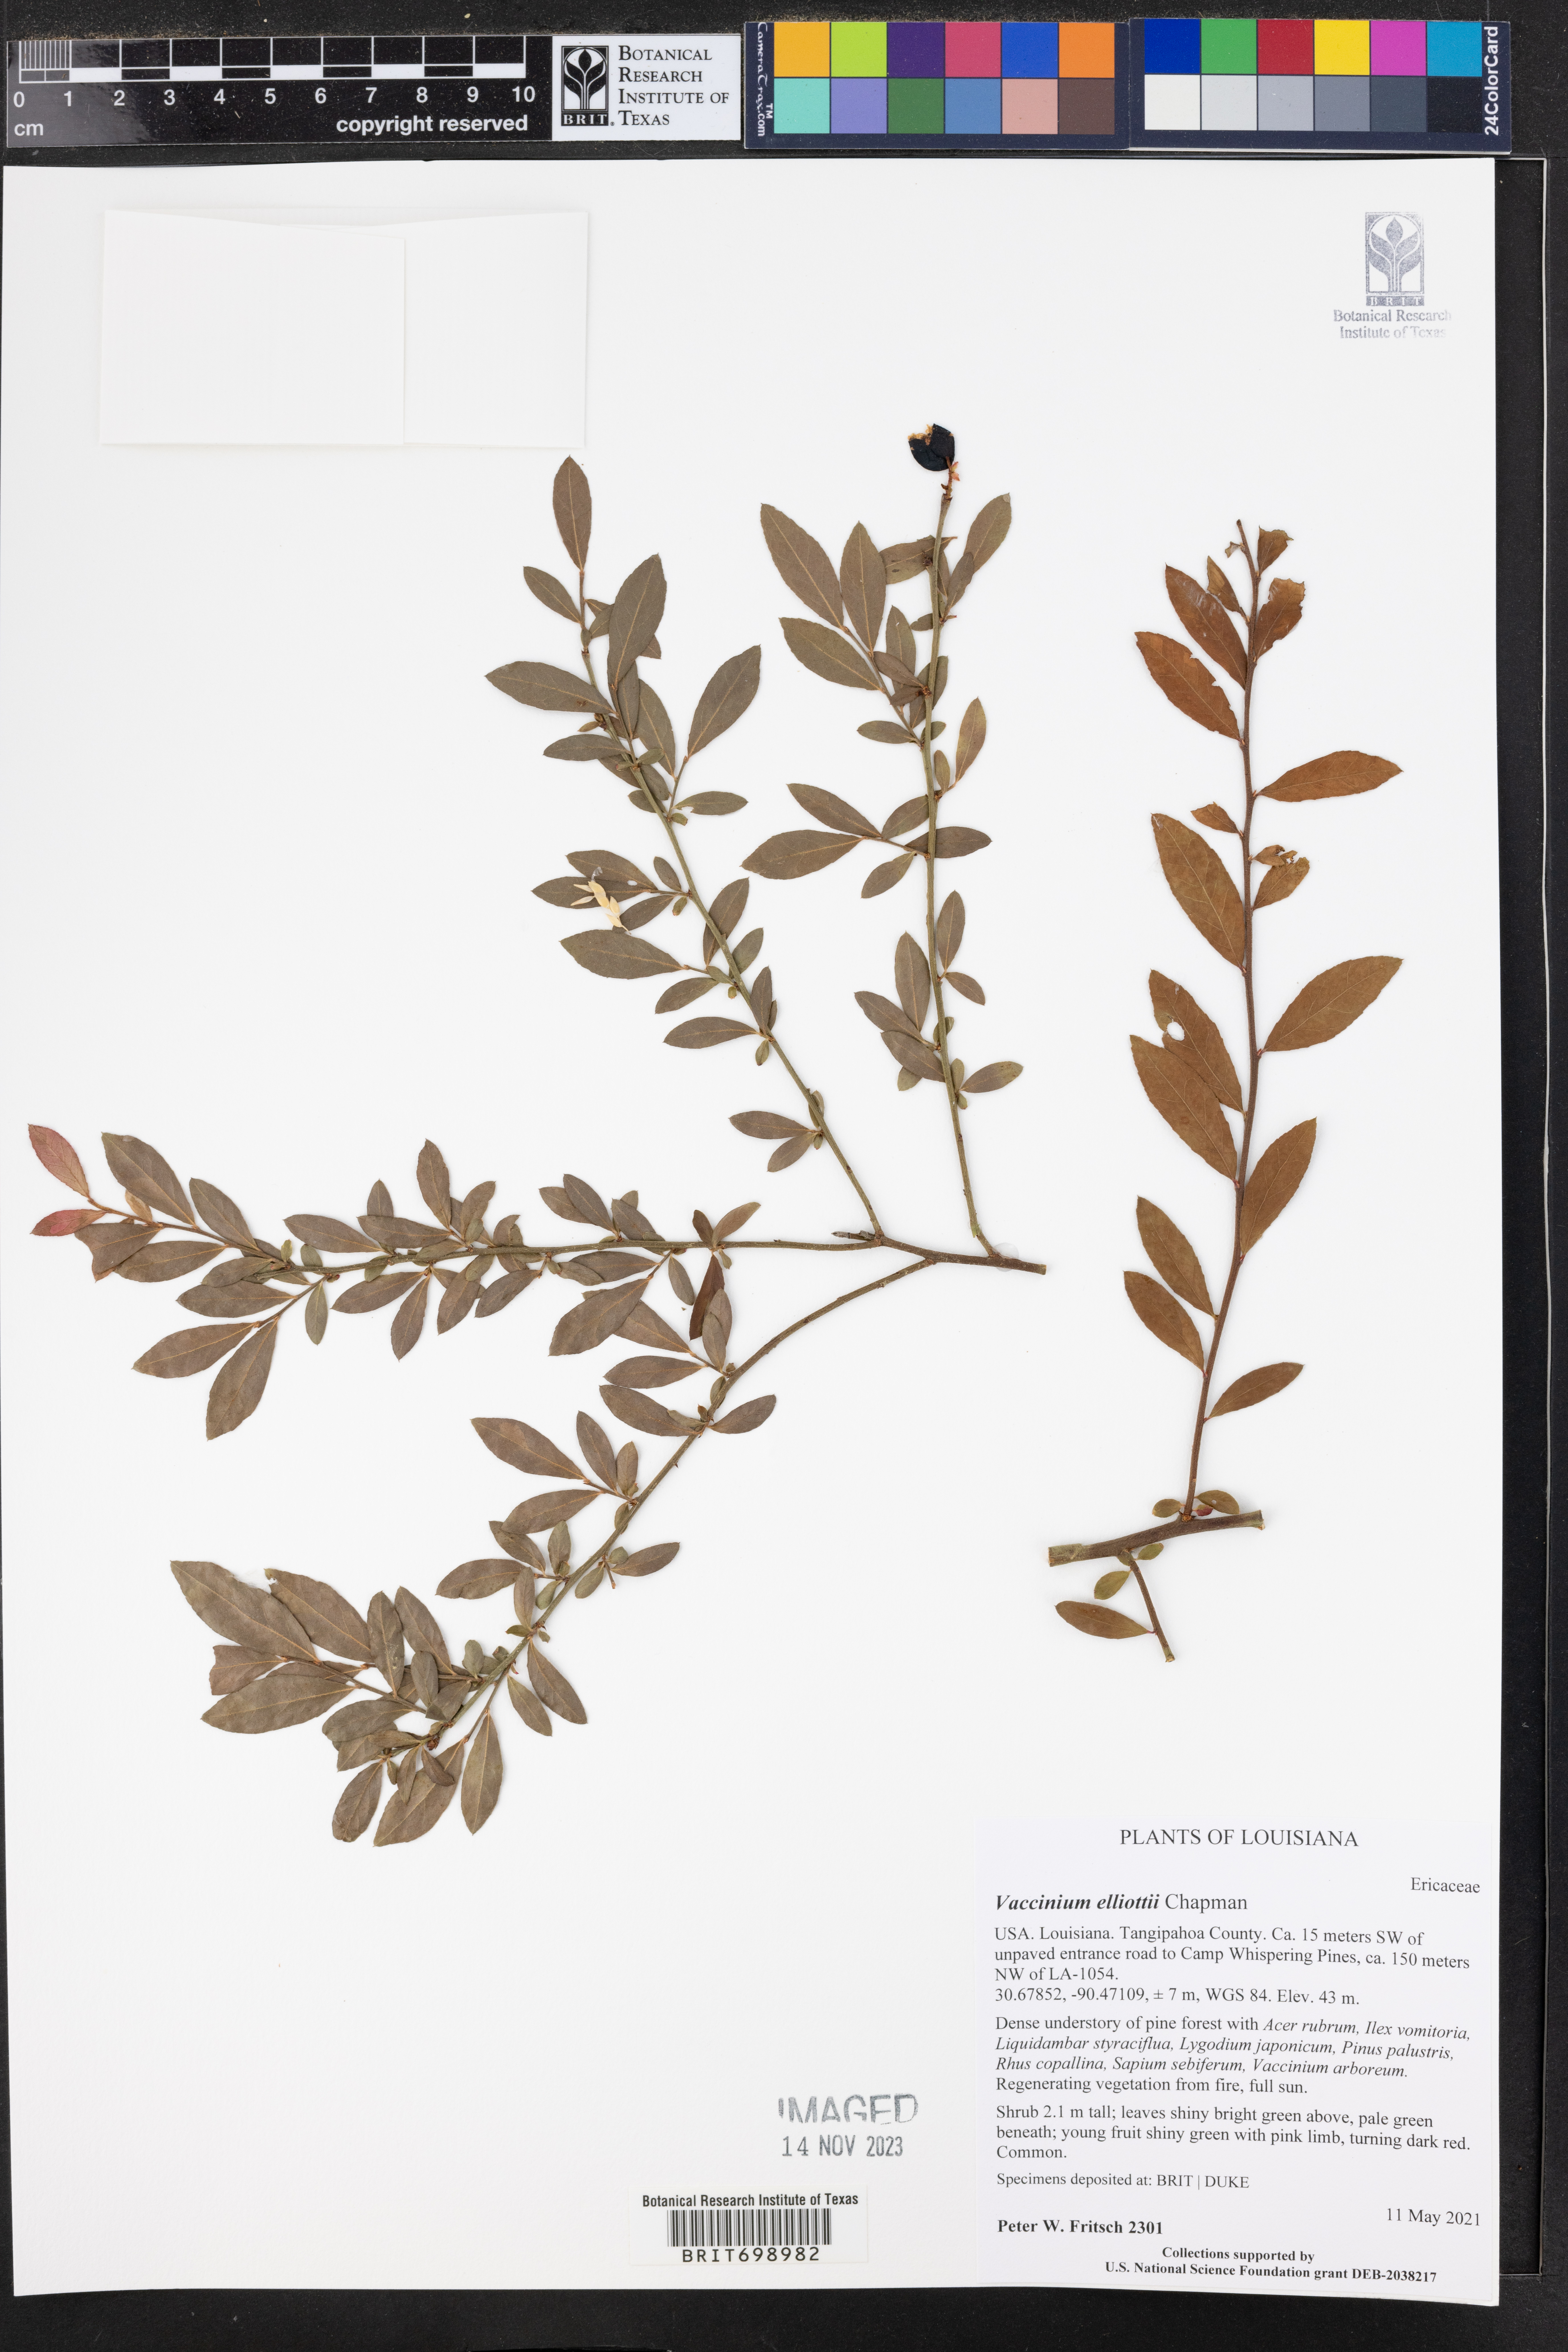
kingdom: Plantae
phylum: Tracheophyta
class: Magnoliopsida
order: Ericales
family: Ericaceae
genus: Vaccinium
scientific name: Vaccinium corymbosum
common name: Blueberry
